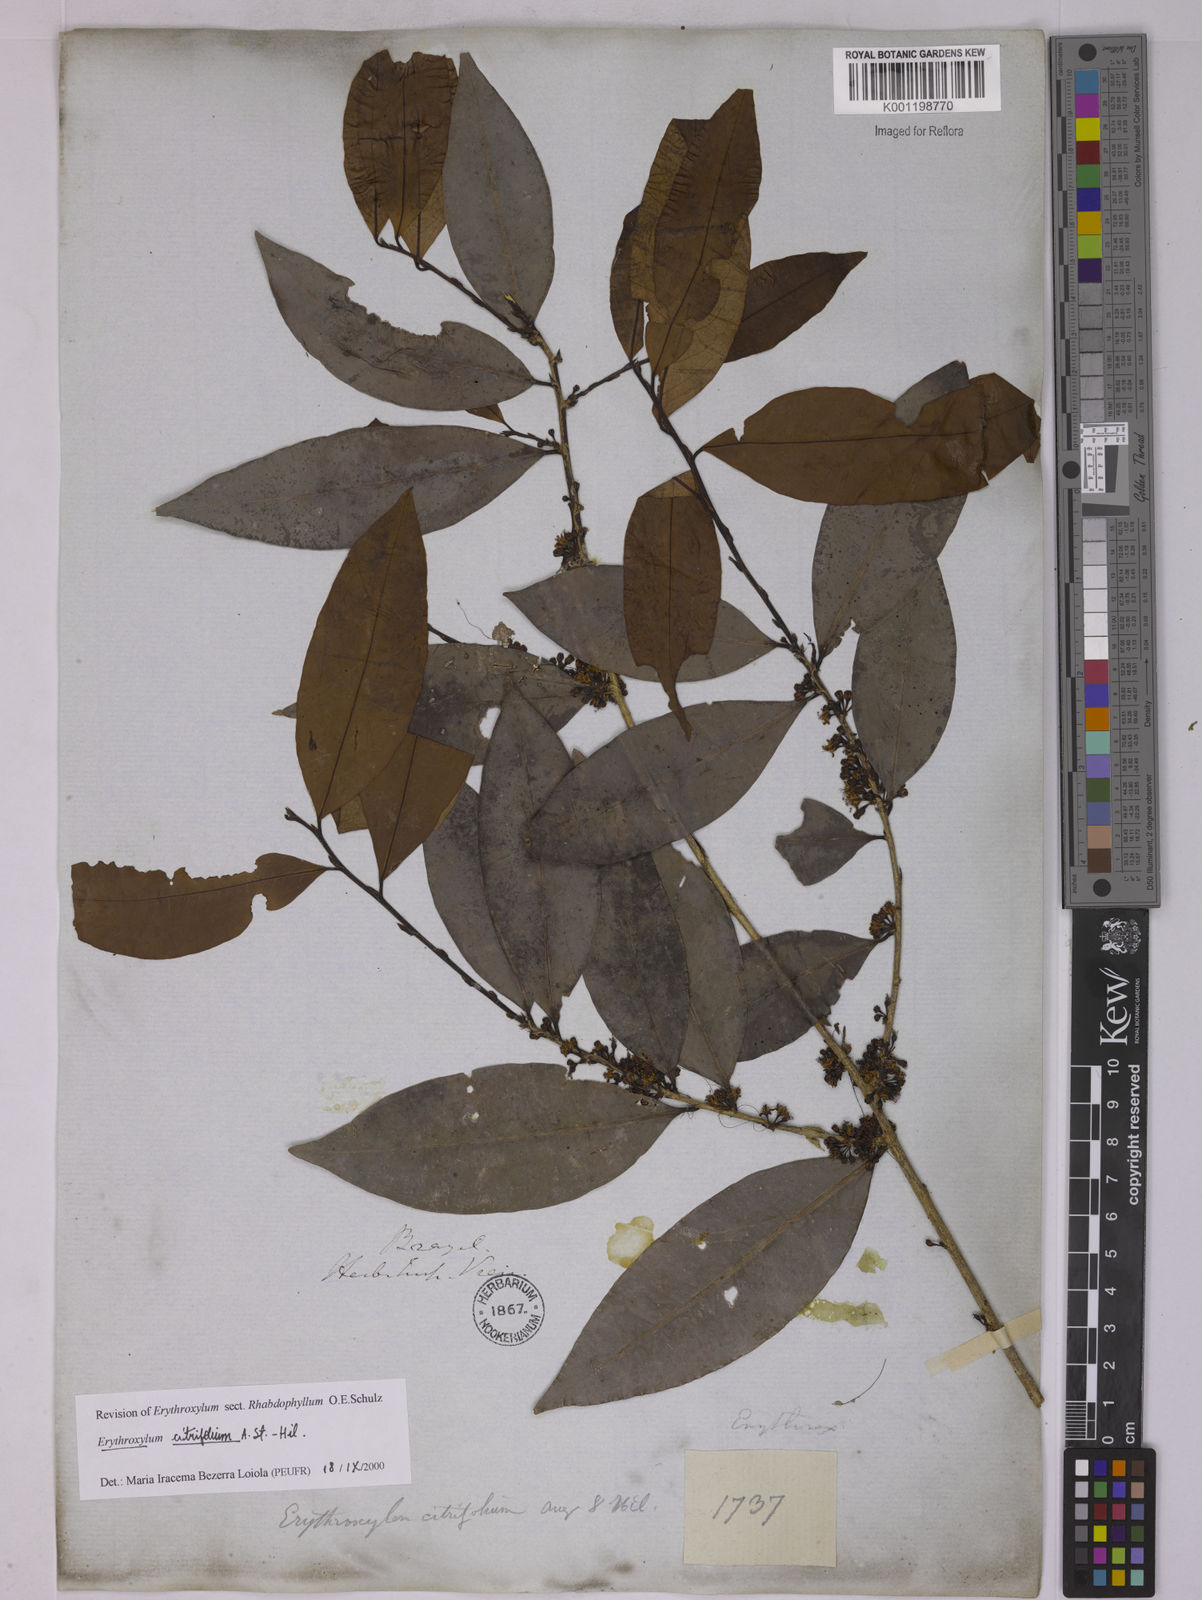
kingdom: Plantae
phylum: Tracheophyta
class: Magnoliopsida
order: Malpighiales
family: Erythroxylaceae
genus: Erythroxylum
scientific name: Erythroxylum citrifolium
